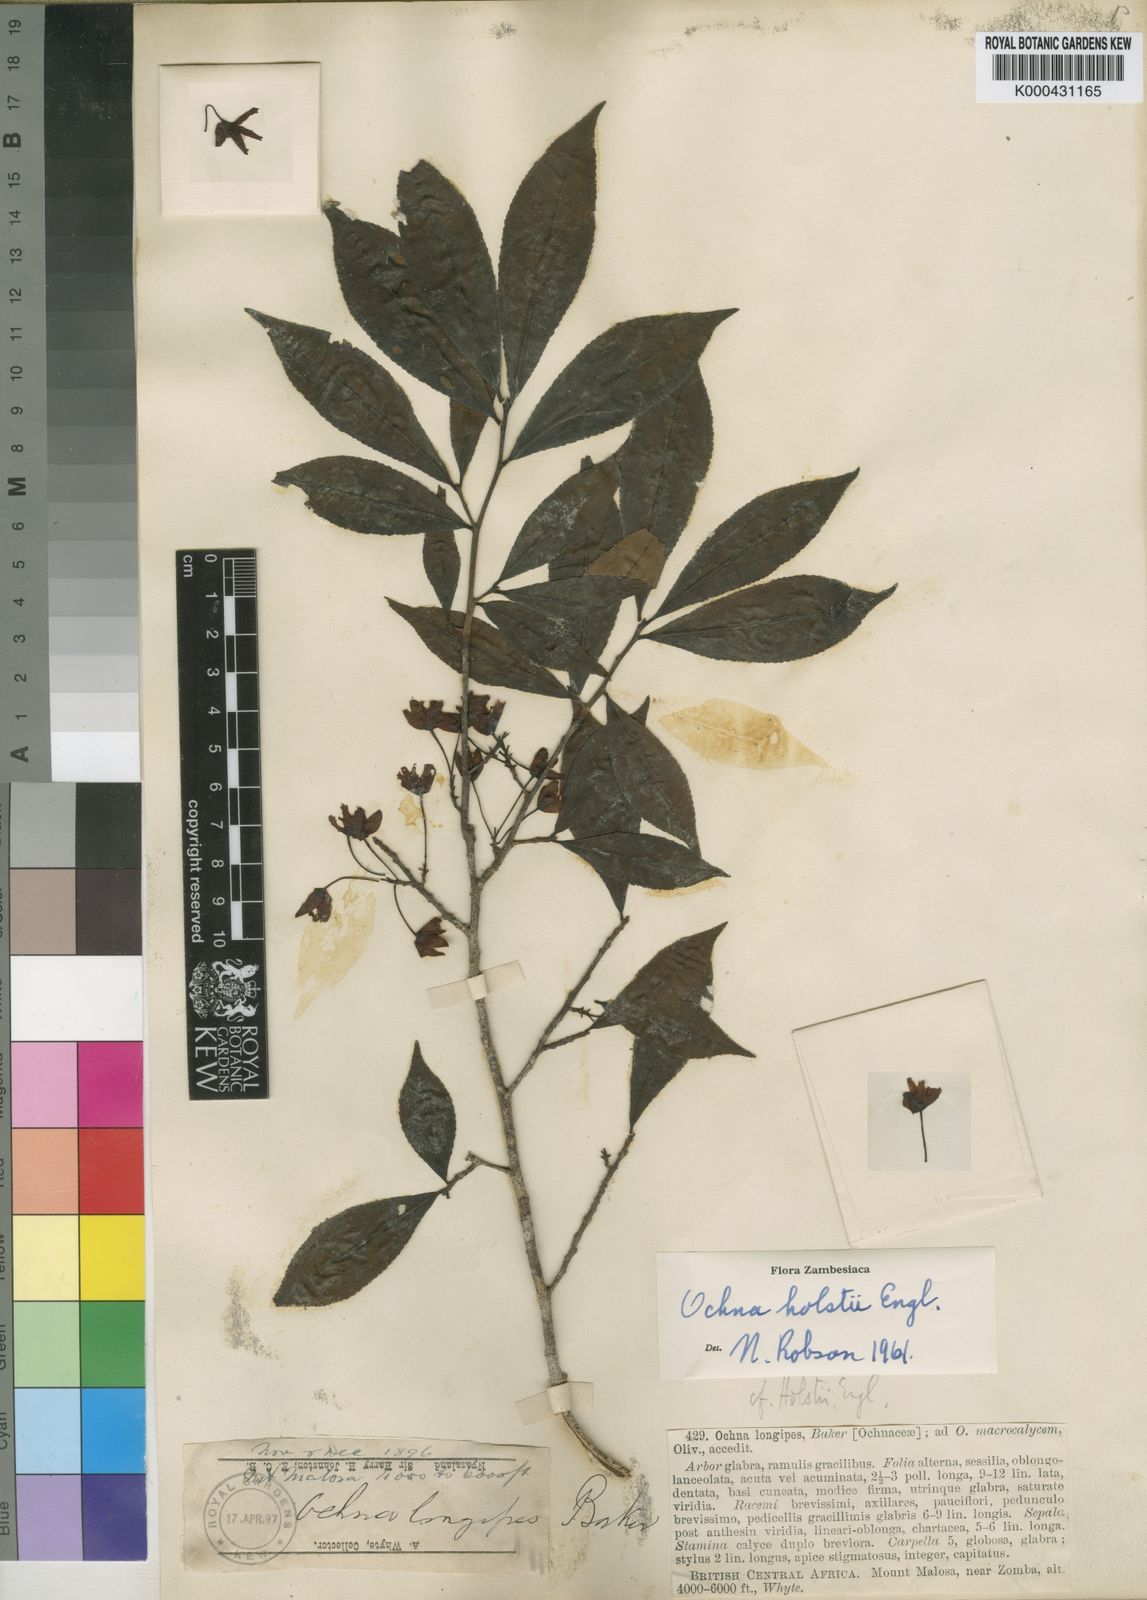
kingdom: Plantae
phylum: Tracheophyta
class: Magnoliopsida
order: Malpighiales
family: Ochnaceae
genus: Ochna
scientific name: Ochna holstii
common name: Red ironwood
